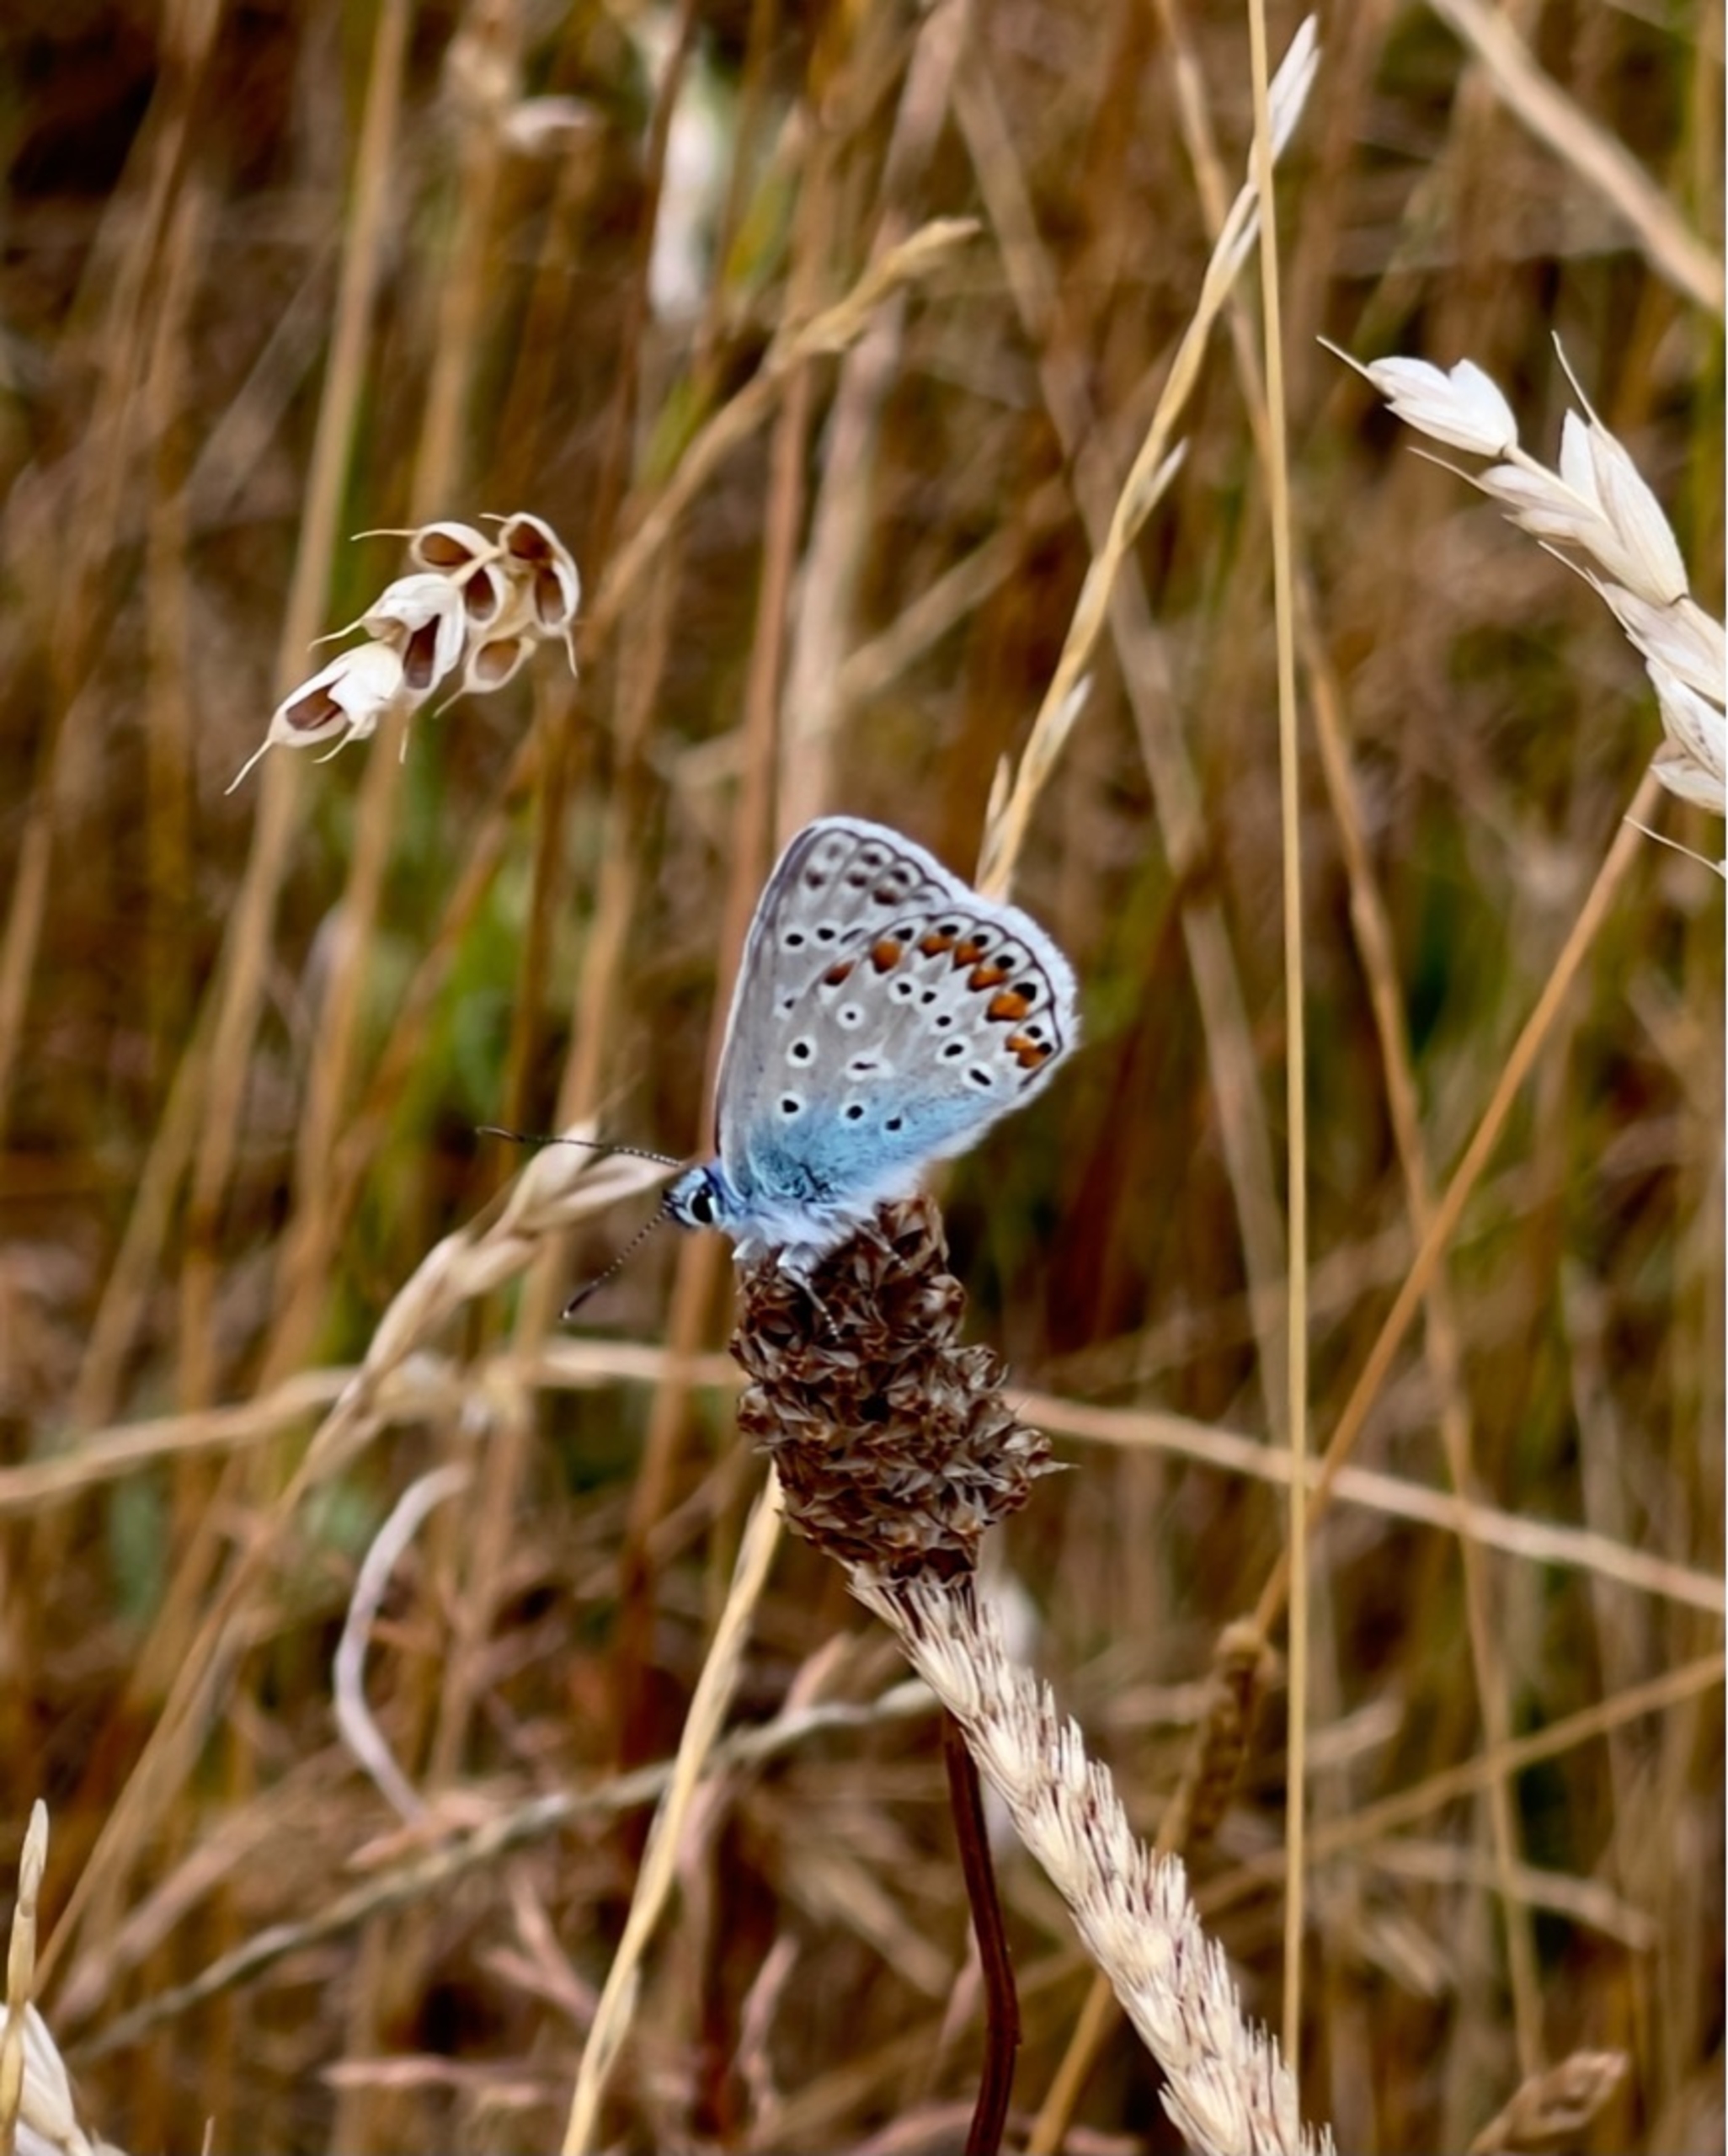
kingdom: Animalia
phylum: Arthropoda
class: Insecta
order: Lepidoptera
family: Lycaenidae
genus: Polyommatus
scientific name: Polyommatus icarus
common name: Almindelig blåfugl
